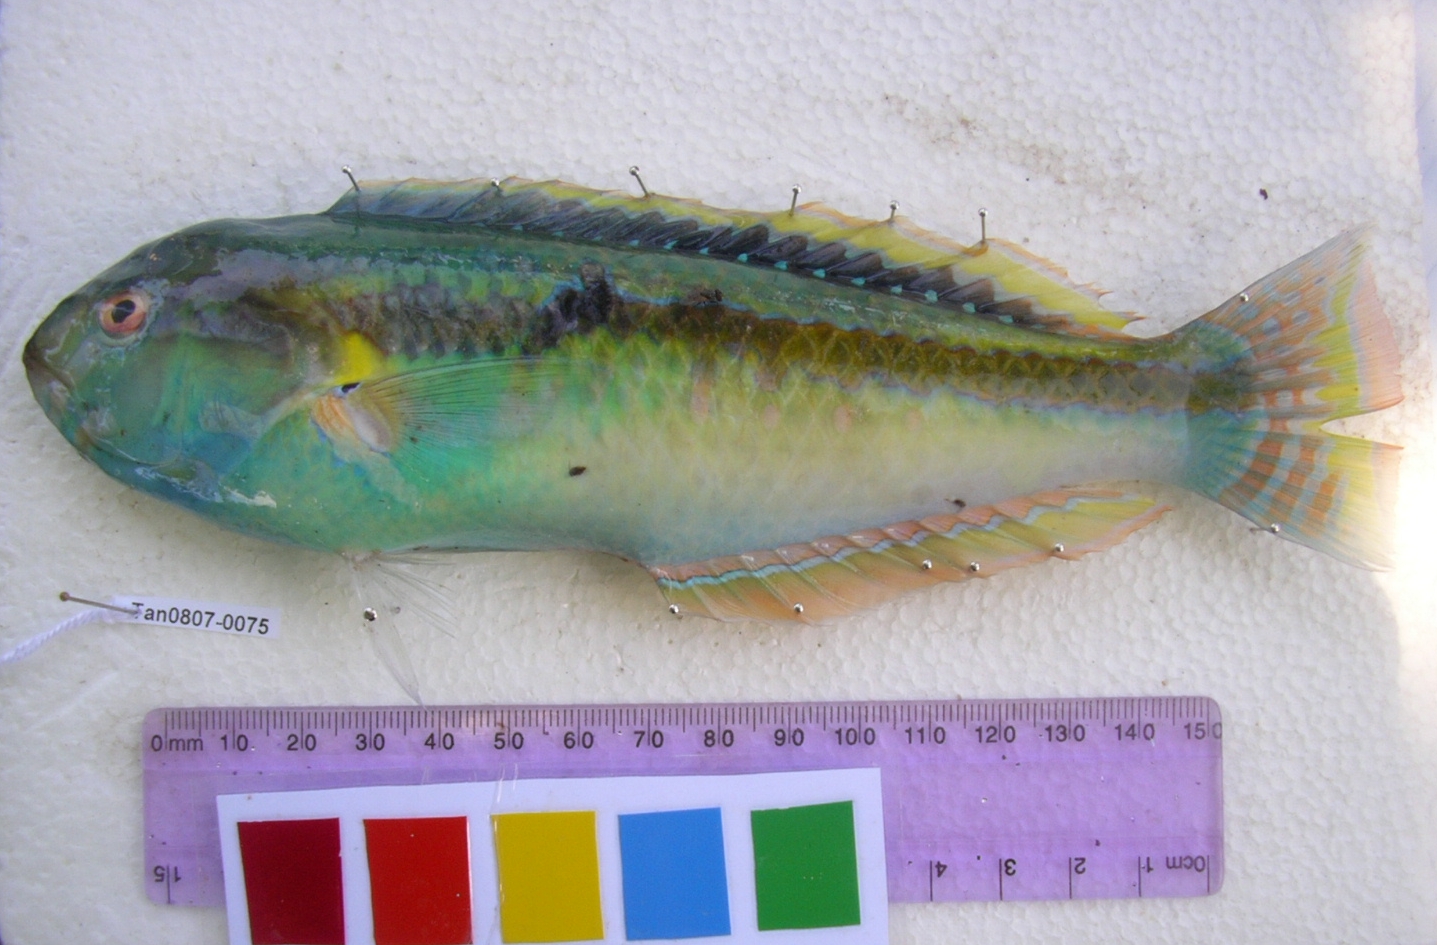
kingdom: Animalia
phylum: Chordata
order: Perciformes
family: Labridae
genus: Halichoeres
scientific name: Halichoeres zeylonicus
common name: Goldstripe wrasse
